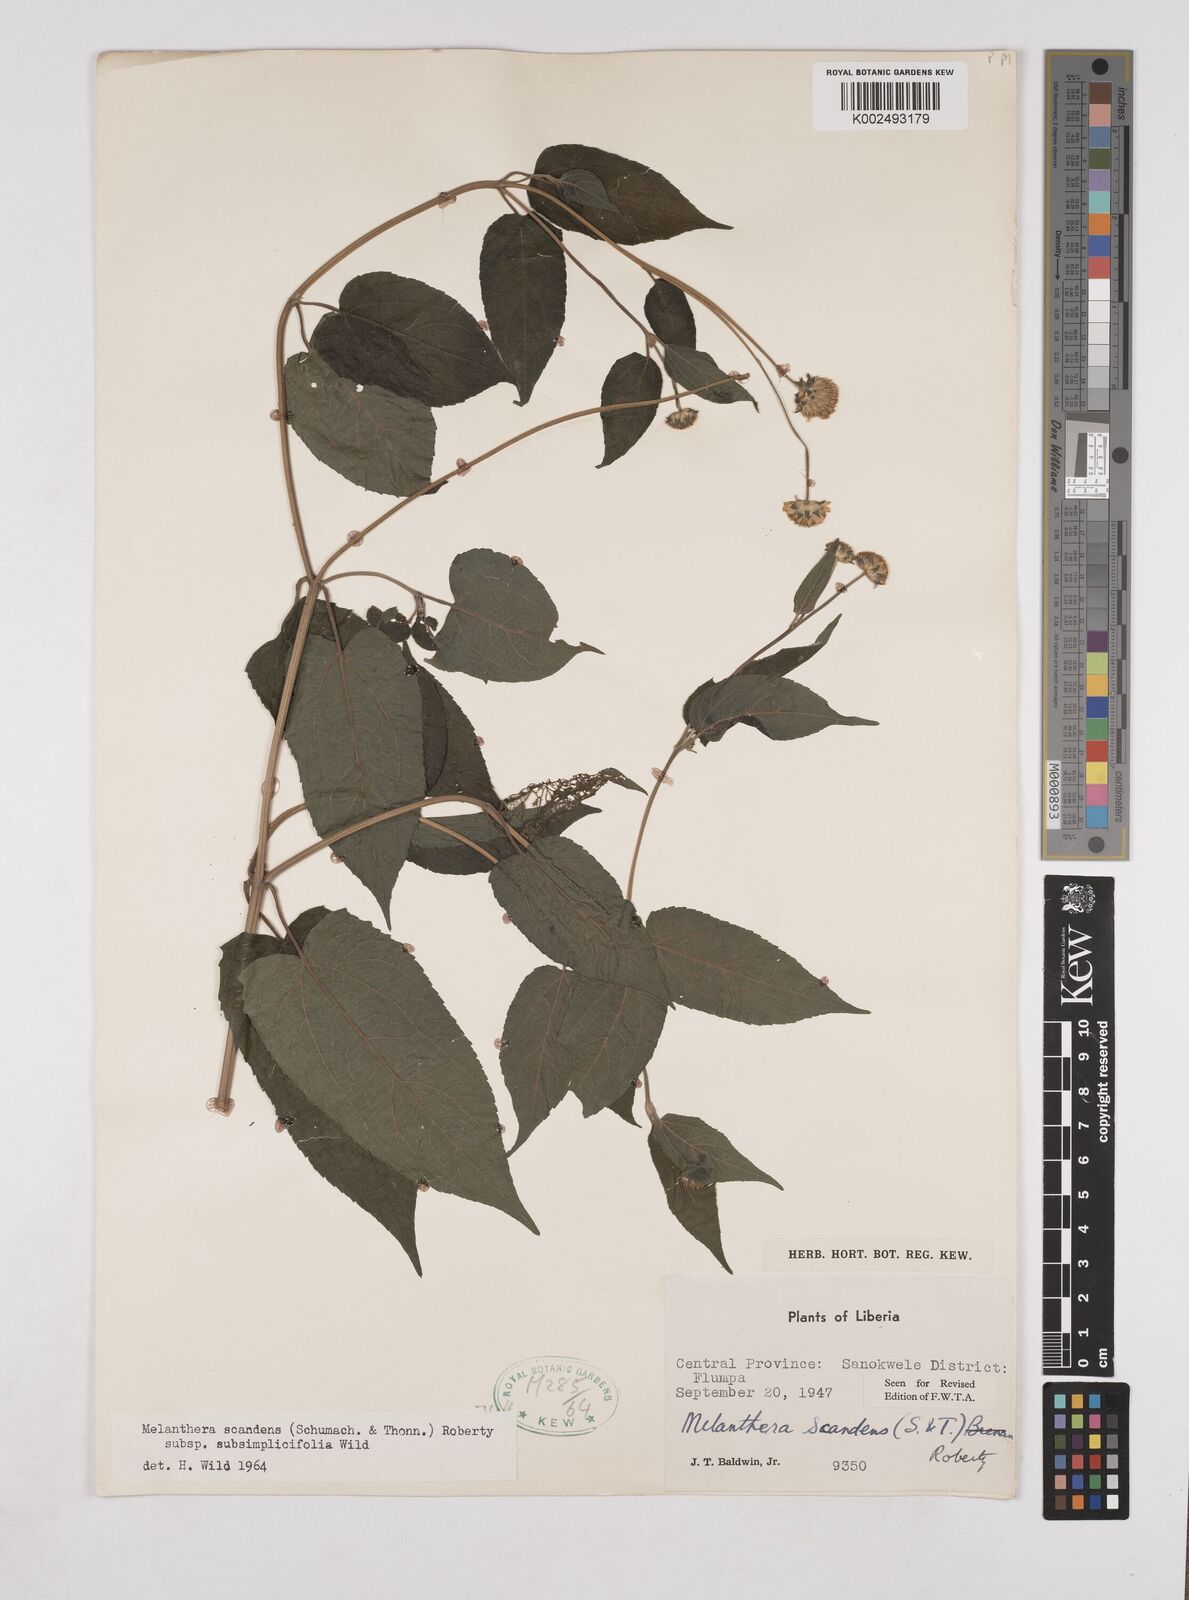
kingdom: Plantae
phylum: Tracheophyta
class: Magnoliopsida
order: Asterales
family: Asteraceae
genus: Lipotriche
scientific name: Lipotriche scandens
